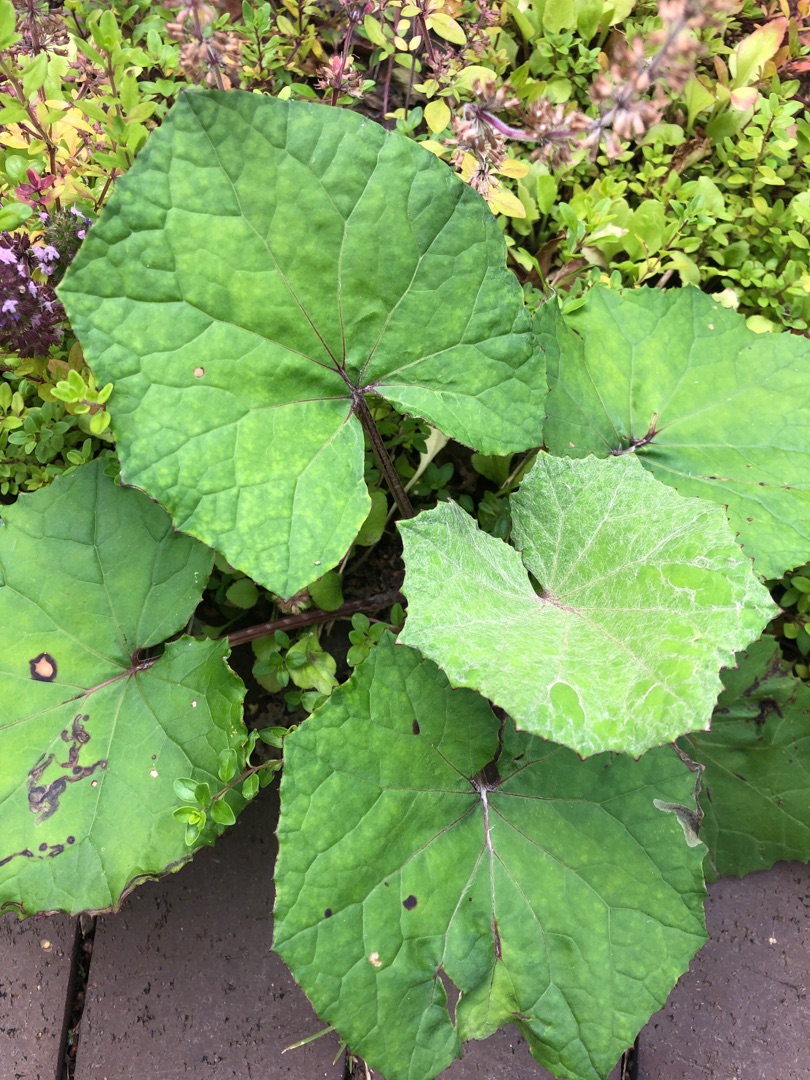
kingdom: Plantae
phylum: Tracheophyta
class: Magnoliopsida
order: Asterales
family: Asteraceae
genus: Tussilago
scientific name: Tussilago farfara
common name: Følfod
